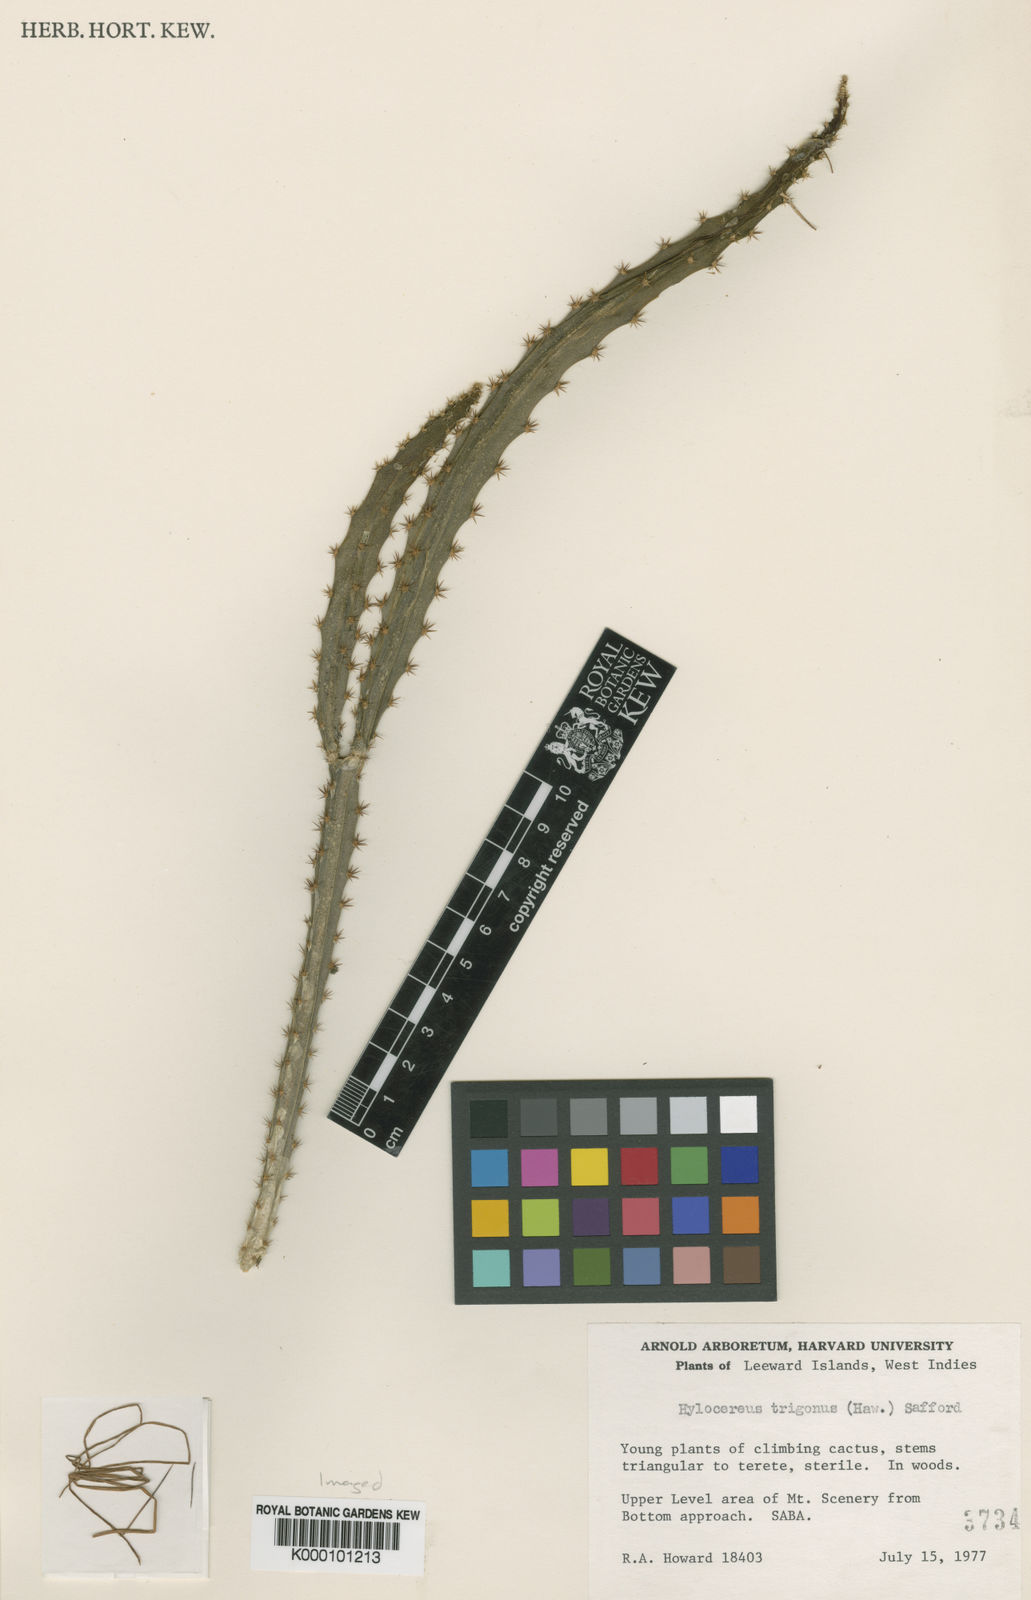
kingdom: Plantae
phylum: Tracheophyta
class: Magnoliopsida
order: Caryophyllales
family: Cactaceae
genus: Selenicereus
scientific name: Selenicereus triangularis
